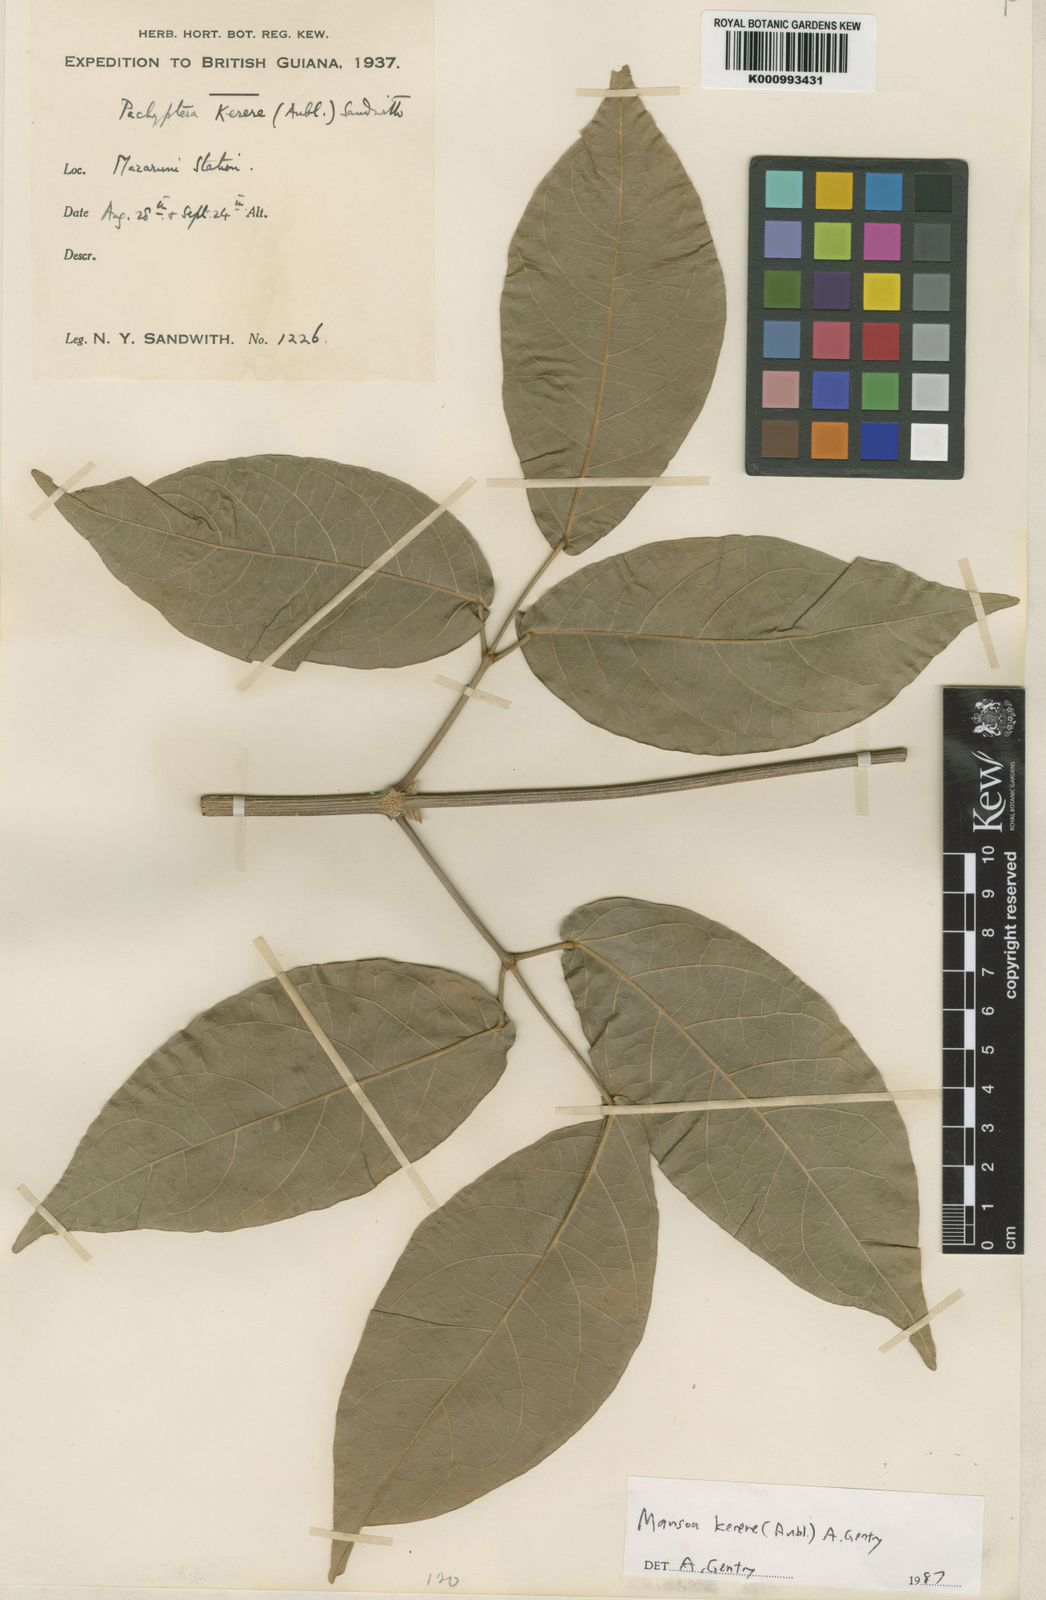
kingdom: Plantae
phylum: Tracheophyta
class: Magnoliopsida
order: Lamiales
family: Bignoniaceae
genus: Pachyptera
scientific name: Pachyptera kerere
